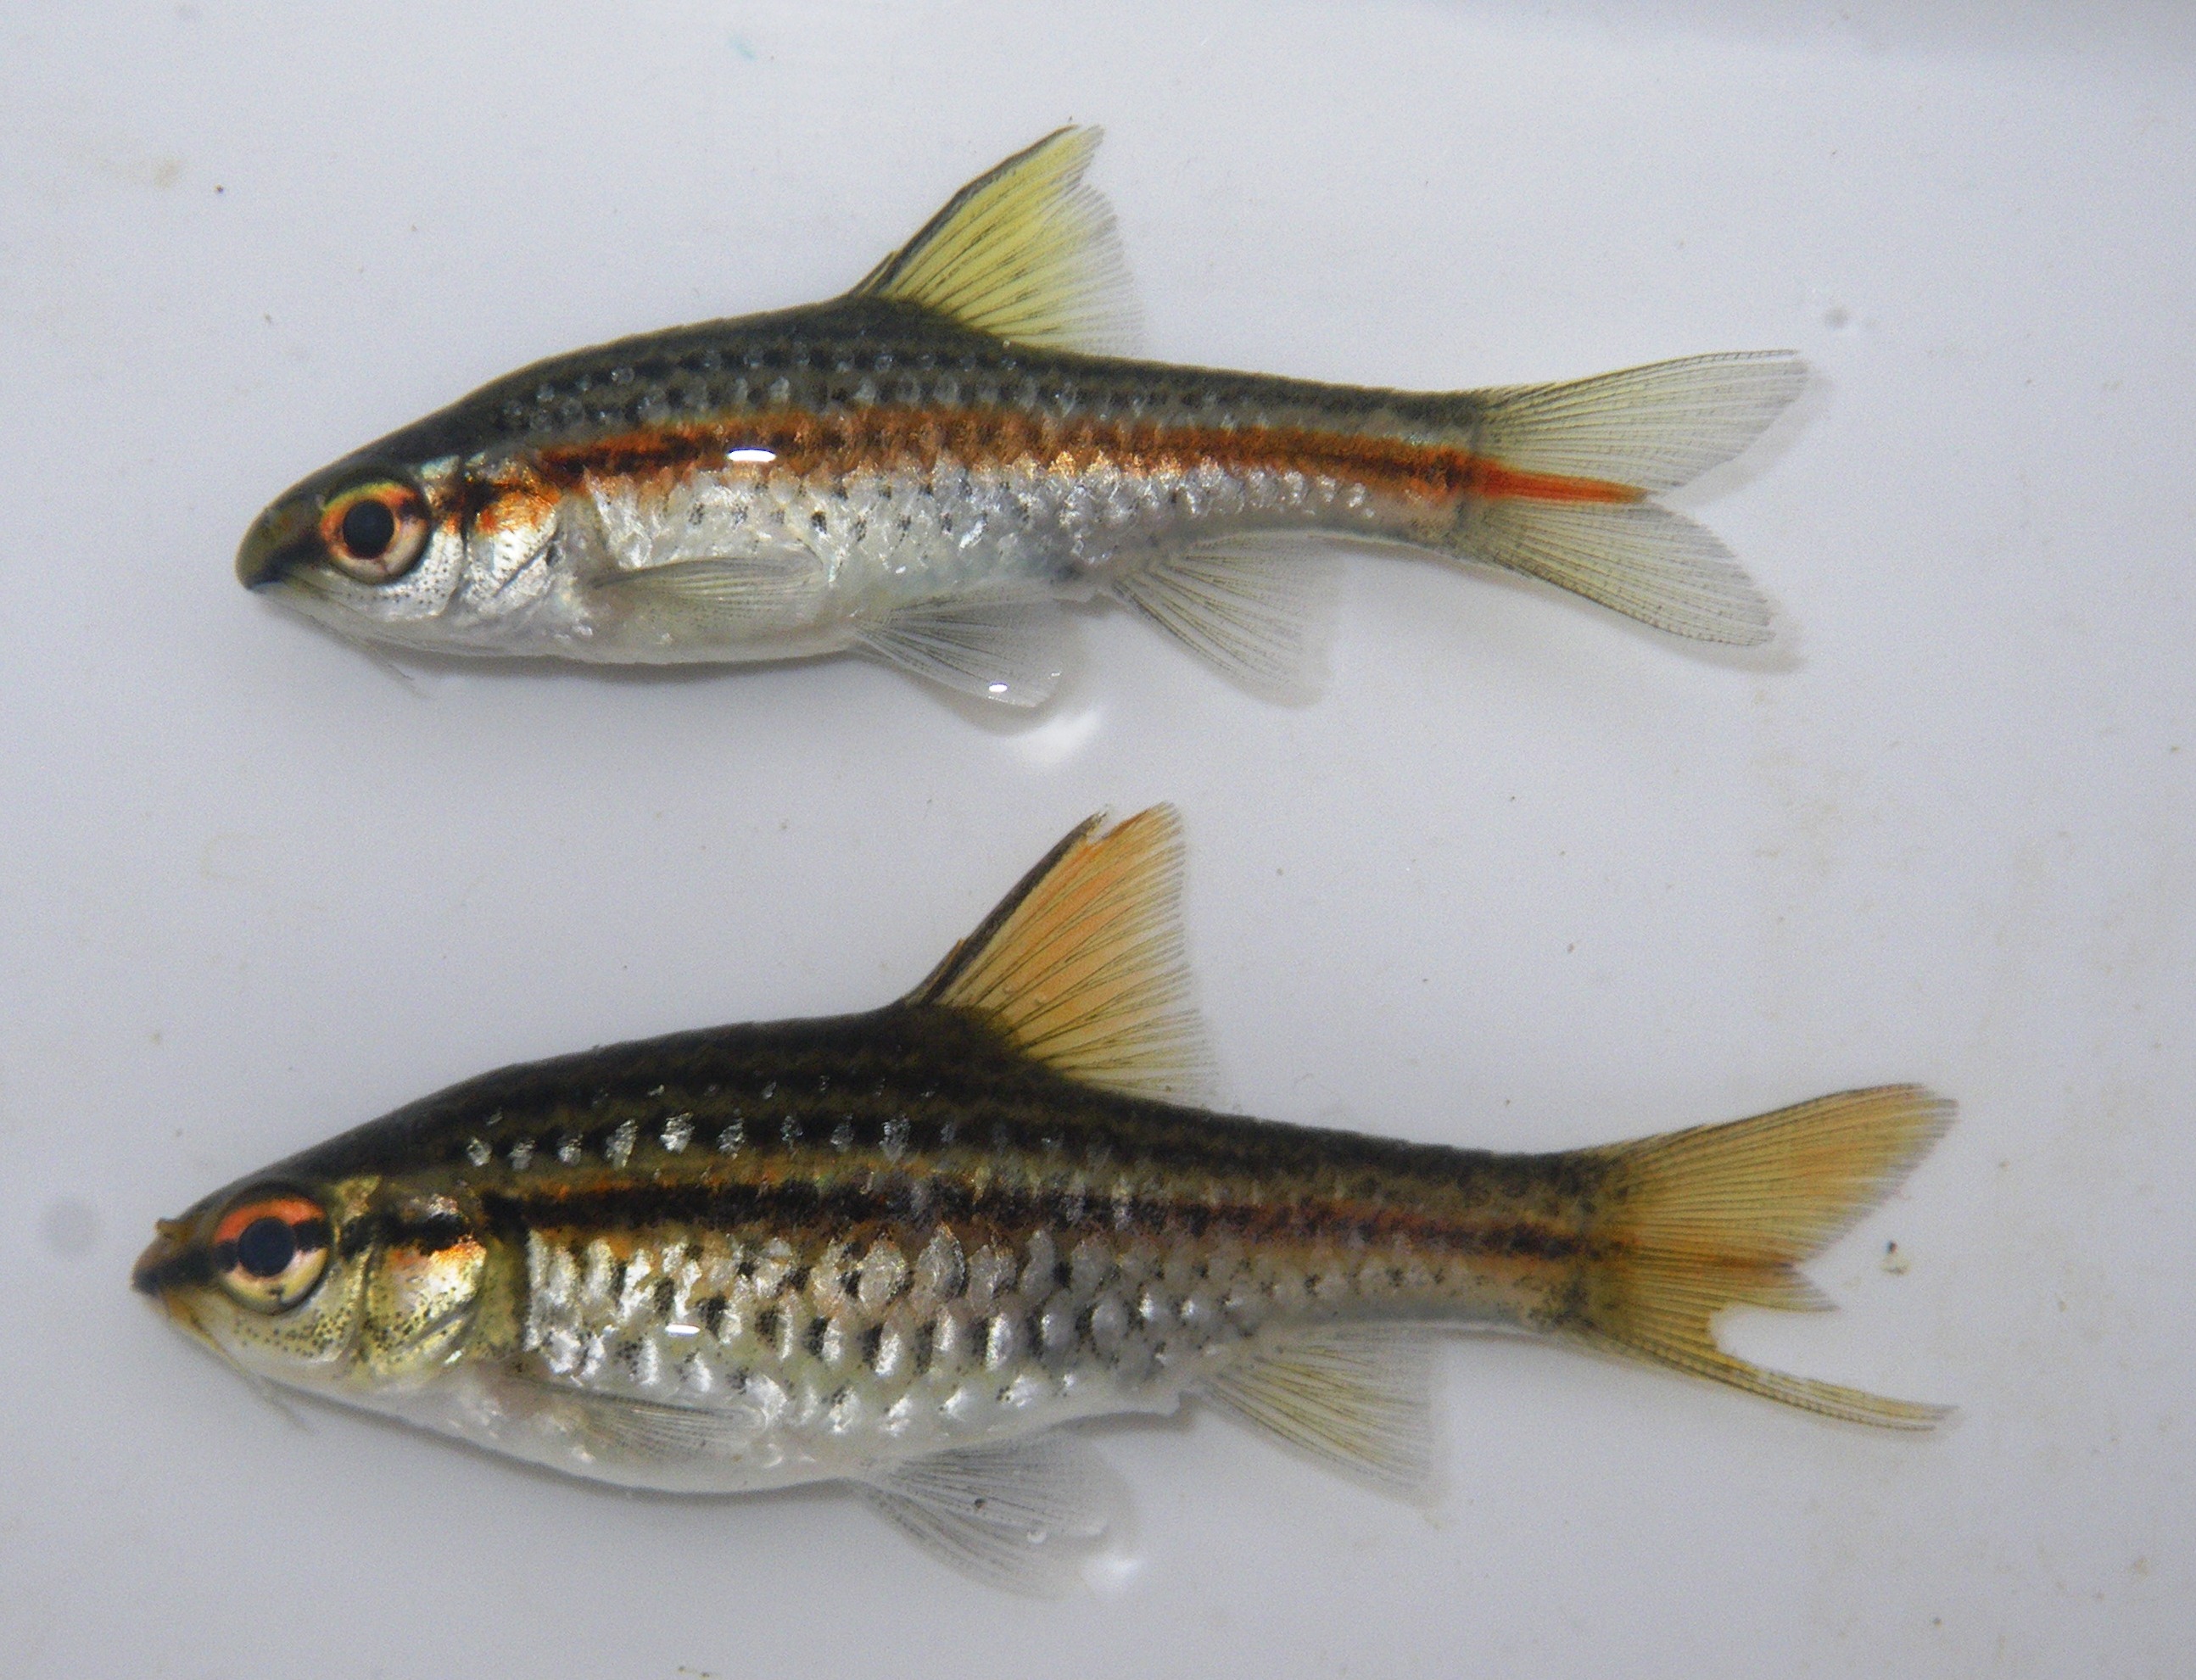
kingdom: Animalia
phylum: Chordata
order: Cypriniformes
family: Cyprinidae
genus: Barbus
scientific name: Barbus
